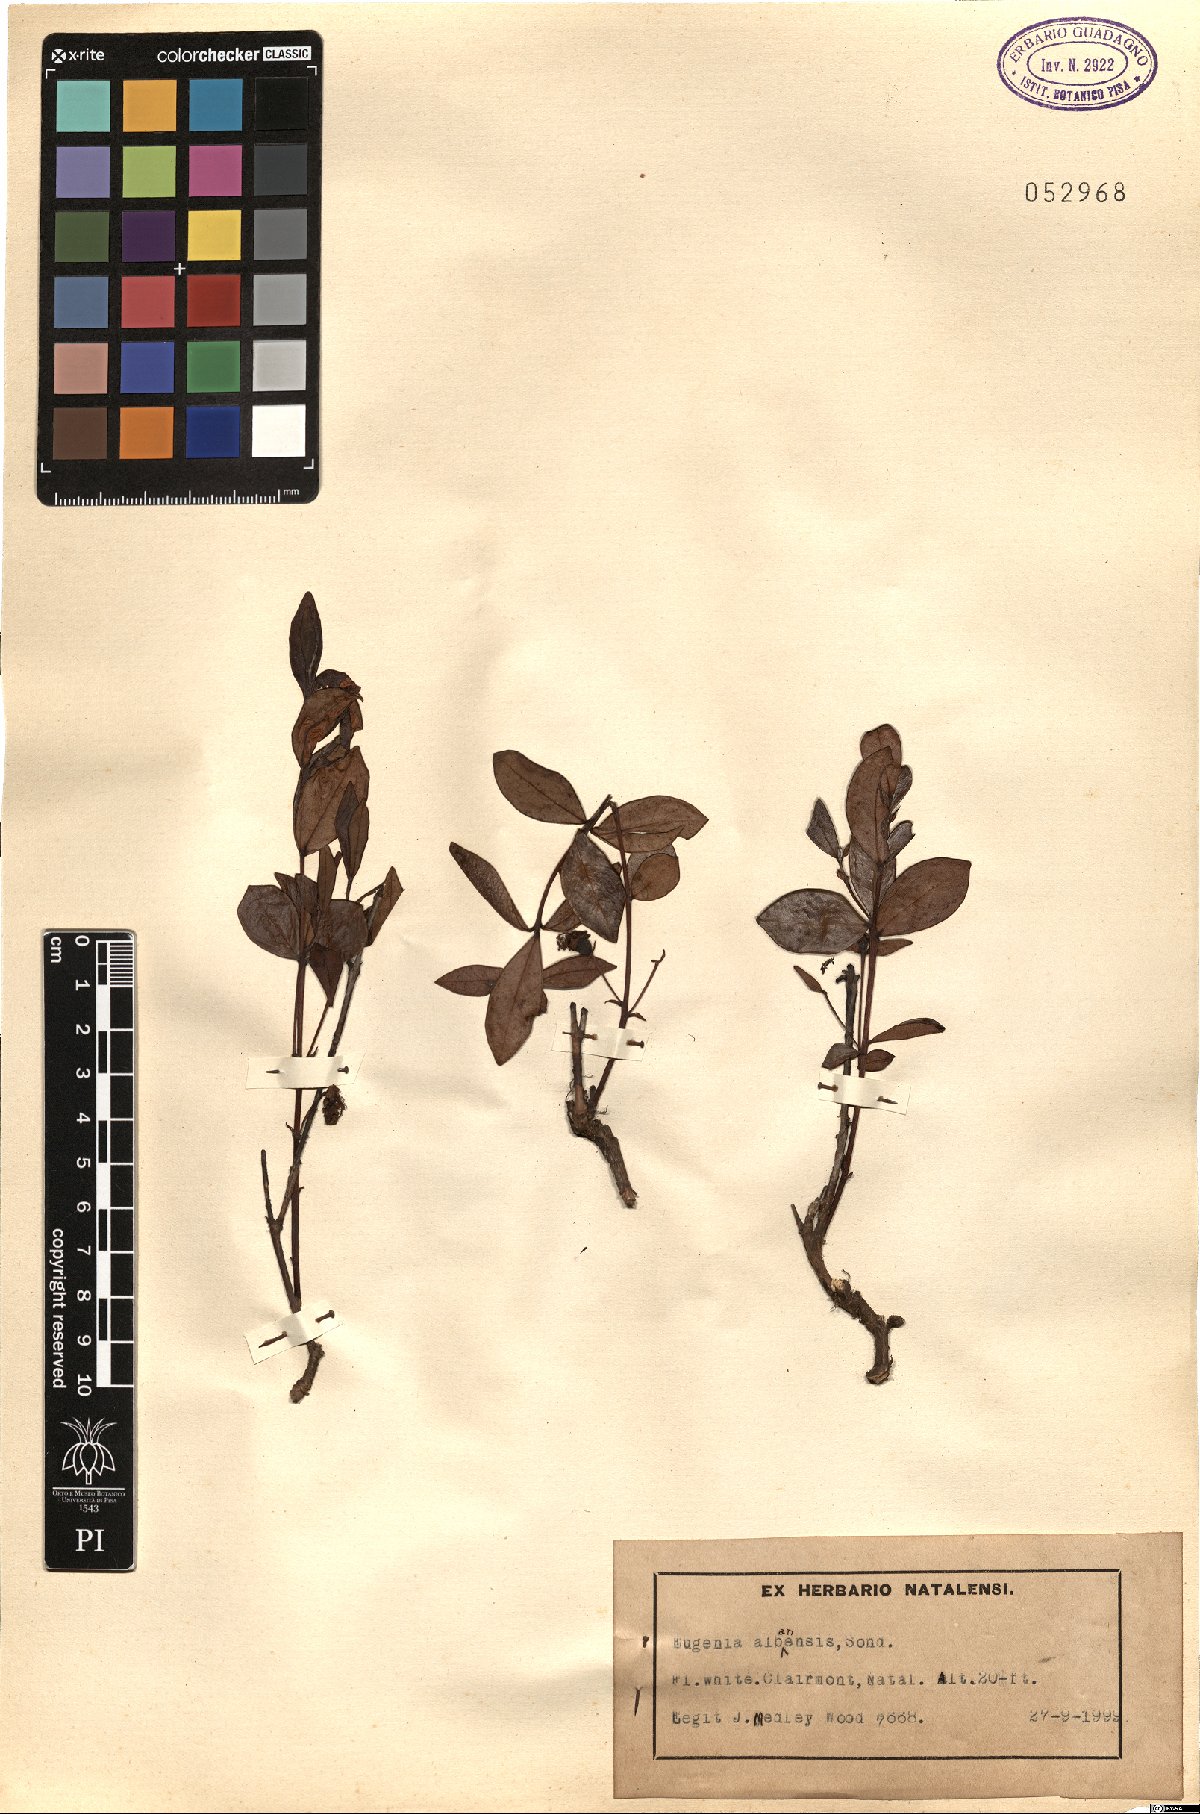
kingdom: Plantae
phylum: Tracheophyta
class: Magnoliopsida
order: Myrtales
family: Myrtaceae
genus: Eugenia
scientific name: Eugenia capensis
